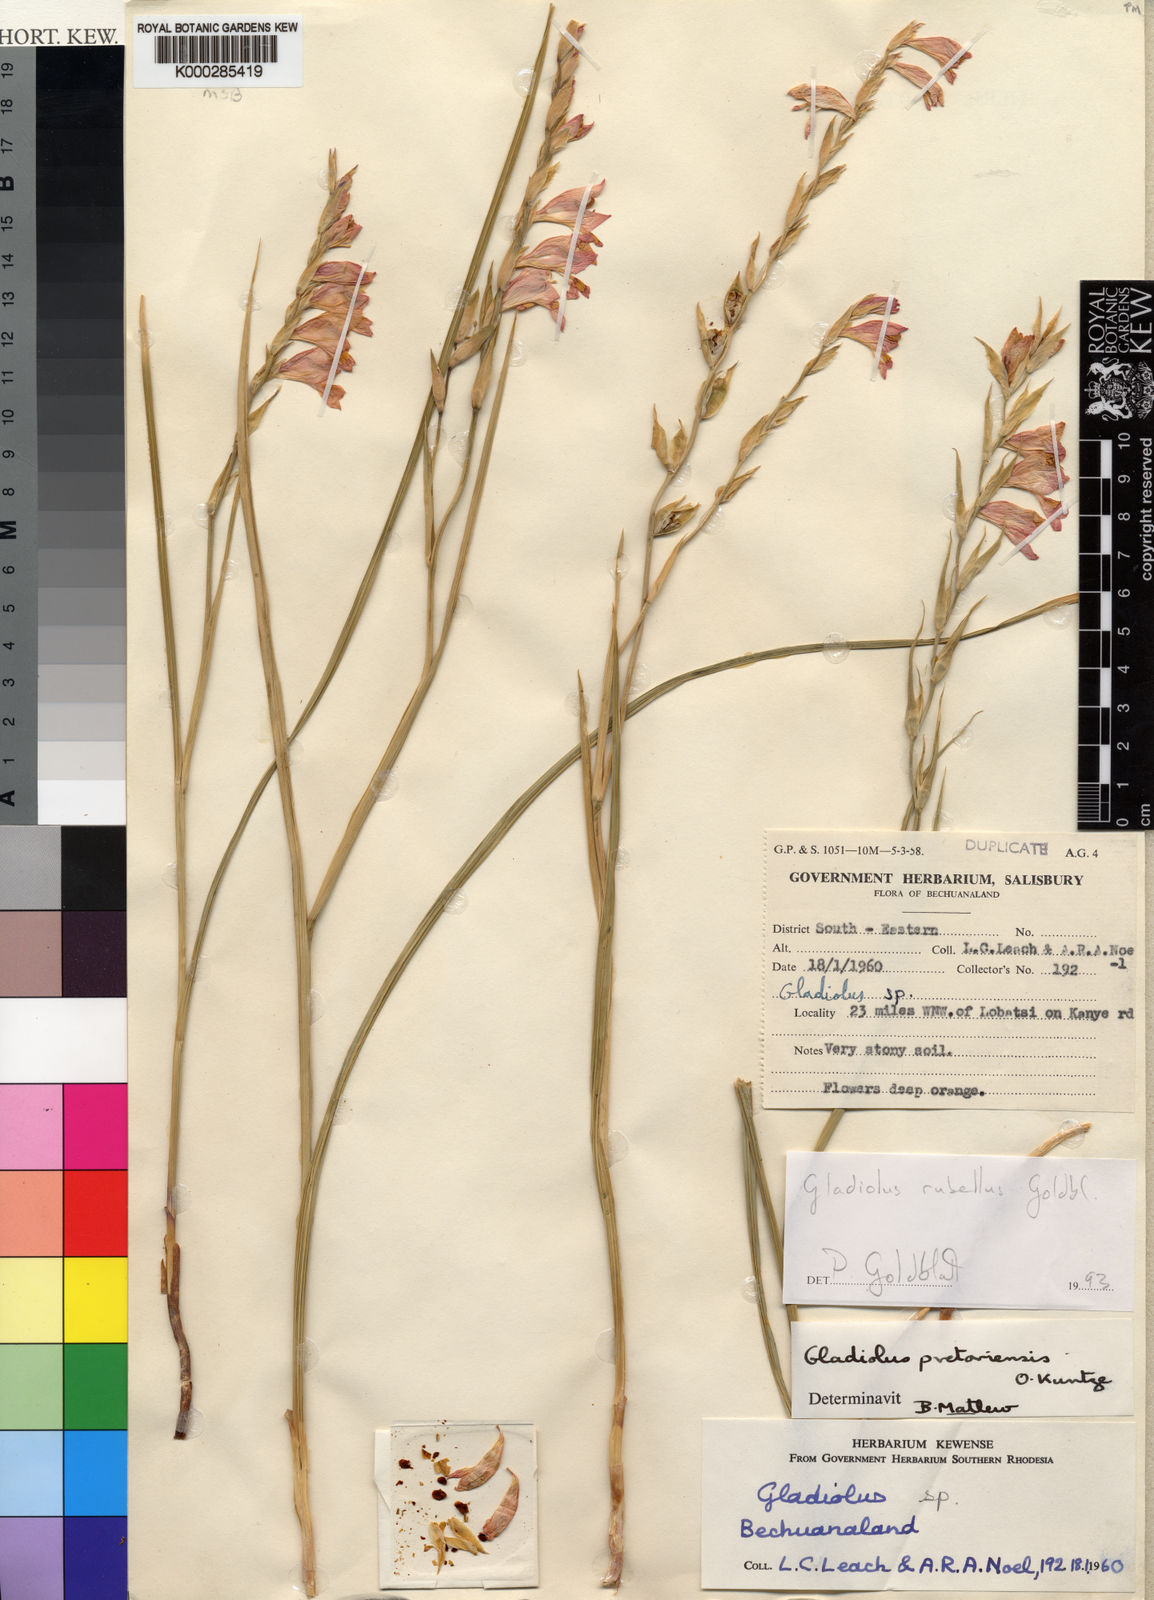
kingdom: Plantae
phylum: Tracheophyta
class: Liliopsida
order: Asparagales
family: Iridaceae
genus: Gladiolus
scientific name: Gladiolus rubellus
